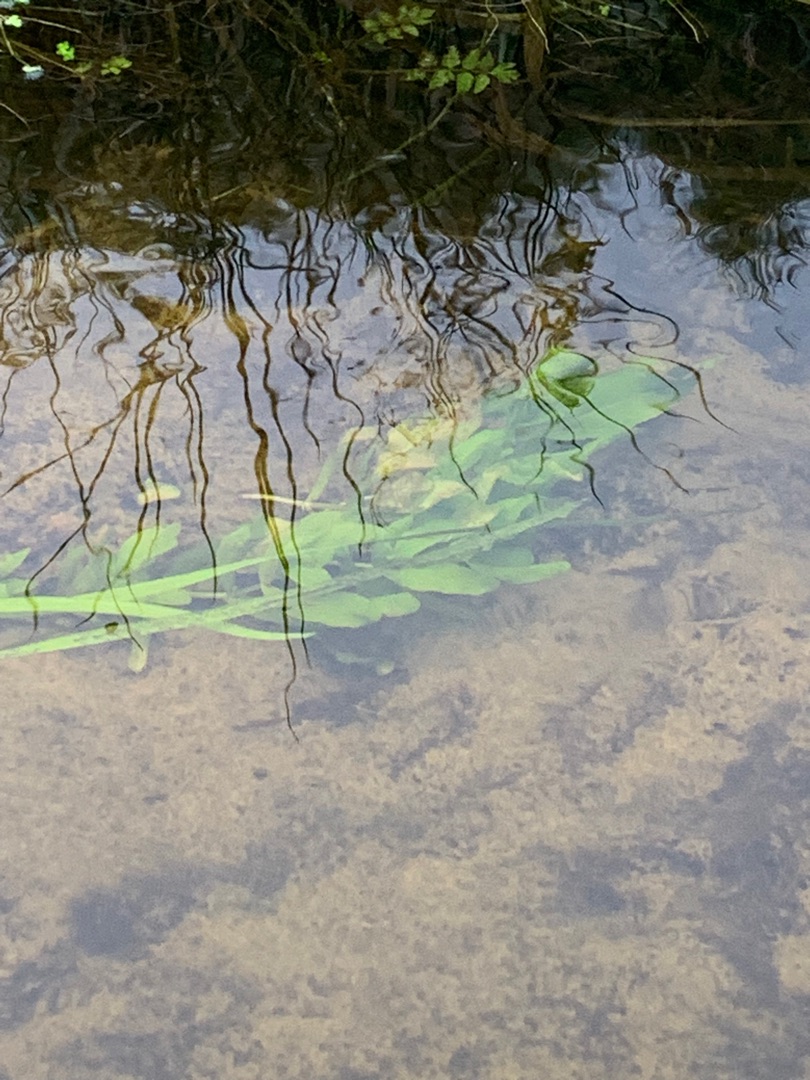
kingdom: Plantae
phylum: Tracheophyta
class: Liliopsida
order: Alismatales
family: Potamogetonaceae
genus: Potamogeton
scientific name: Potamogeton
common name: Vandaks (Potamogeton-slægten)
